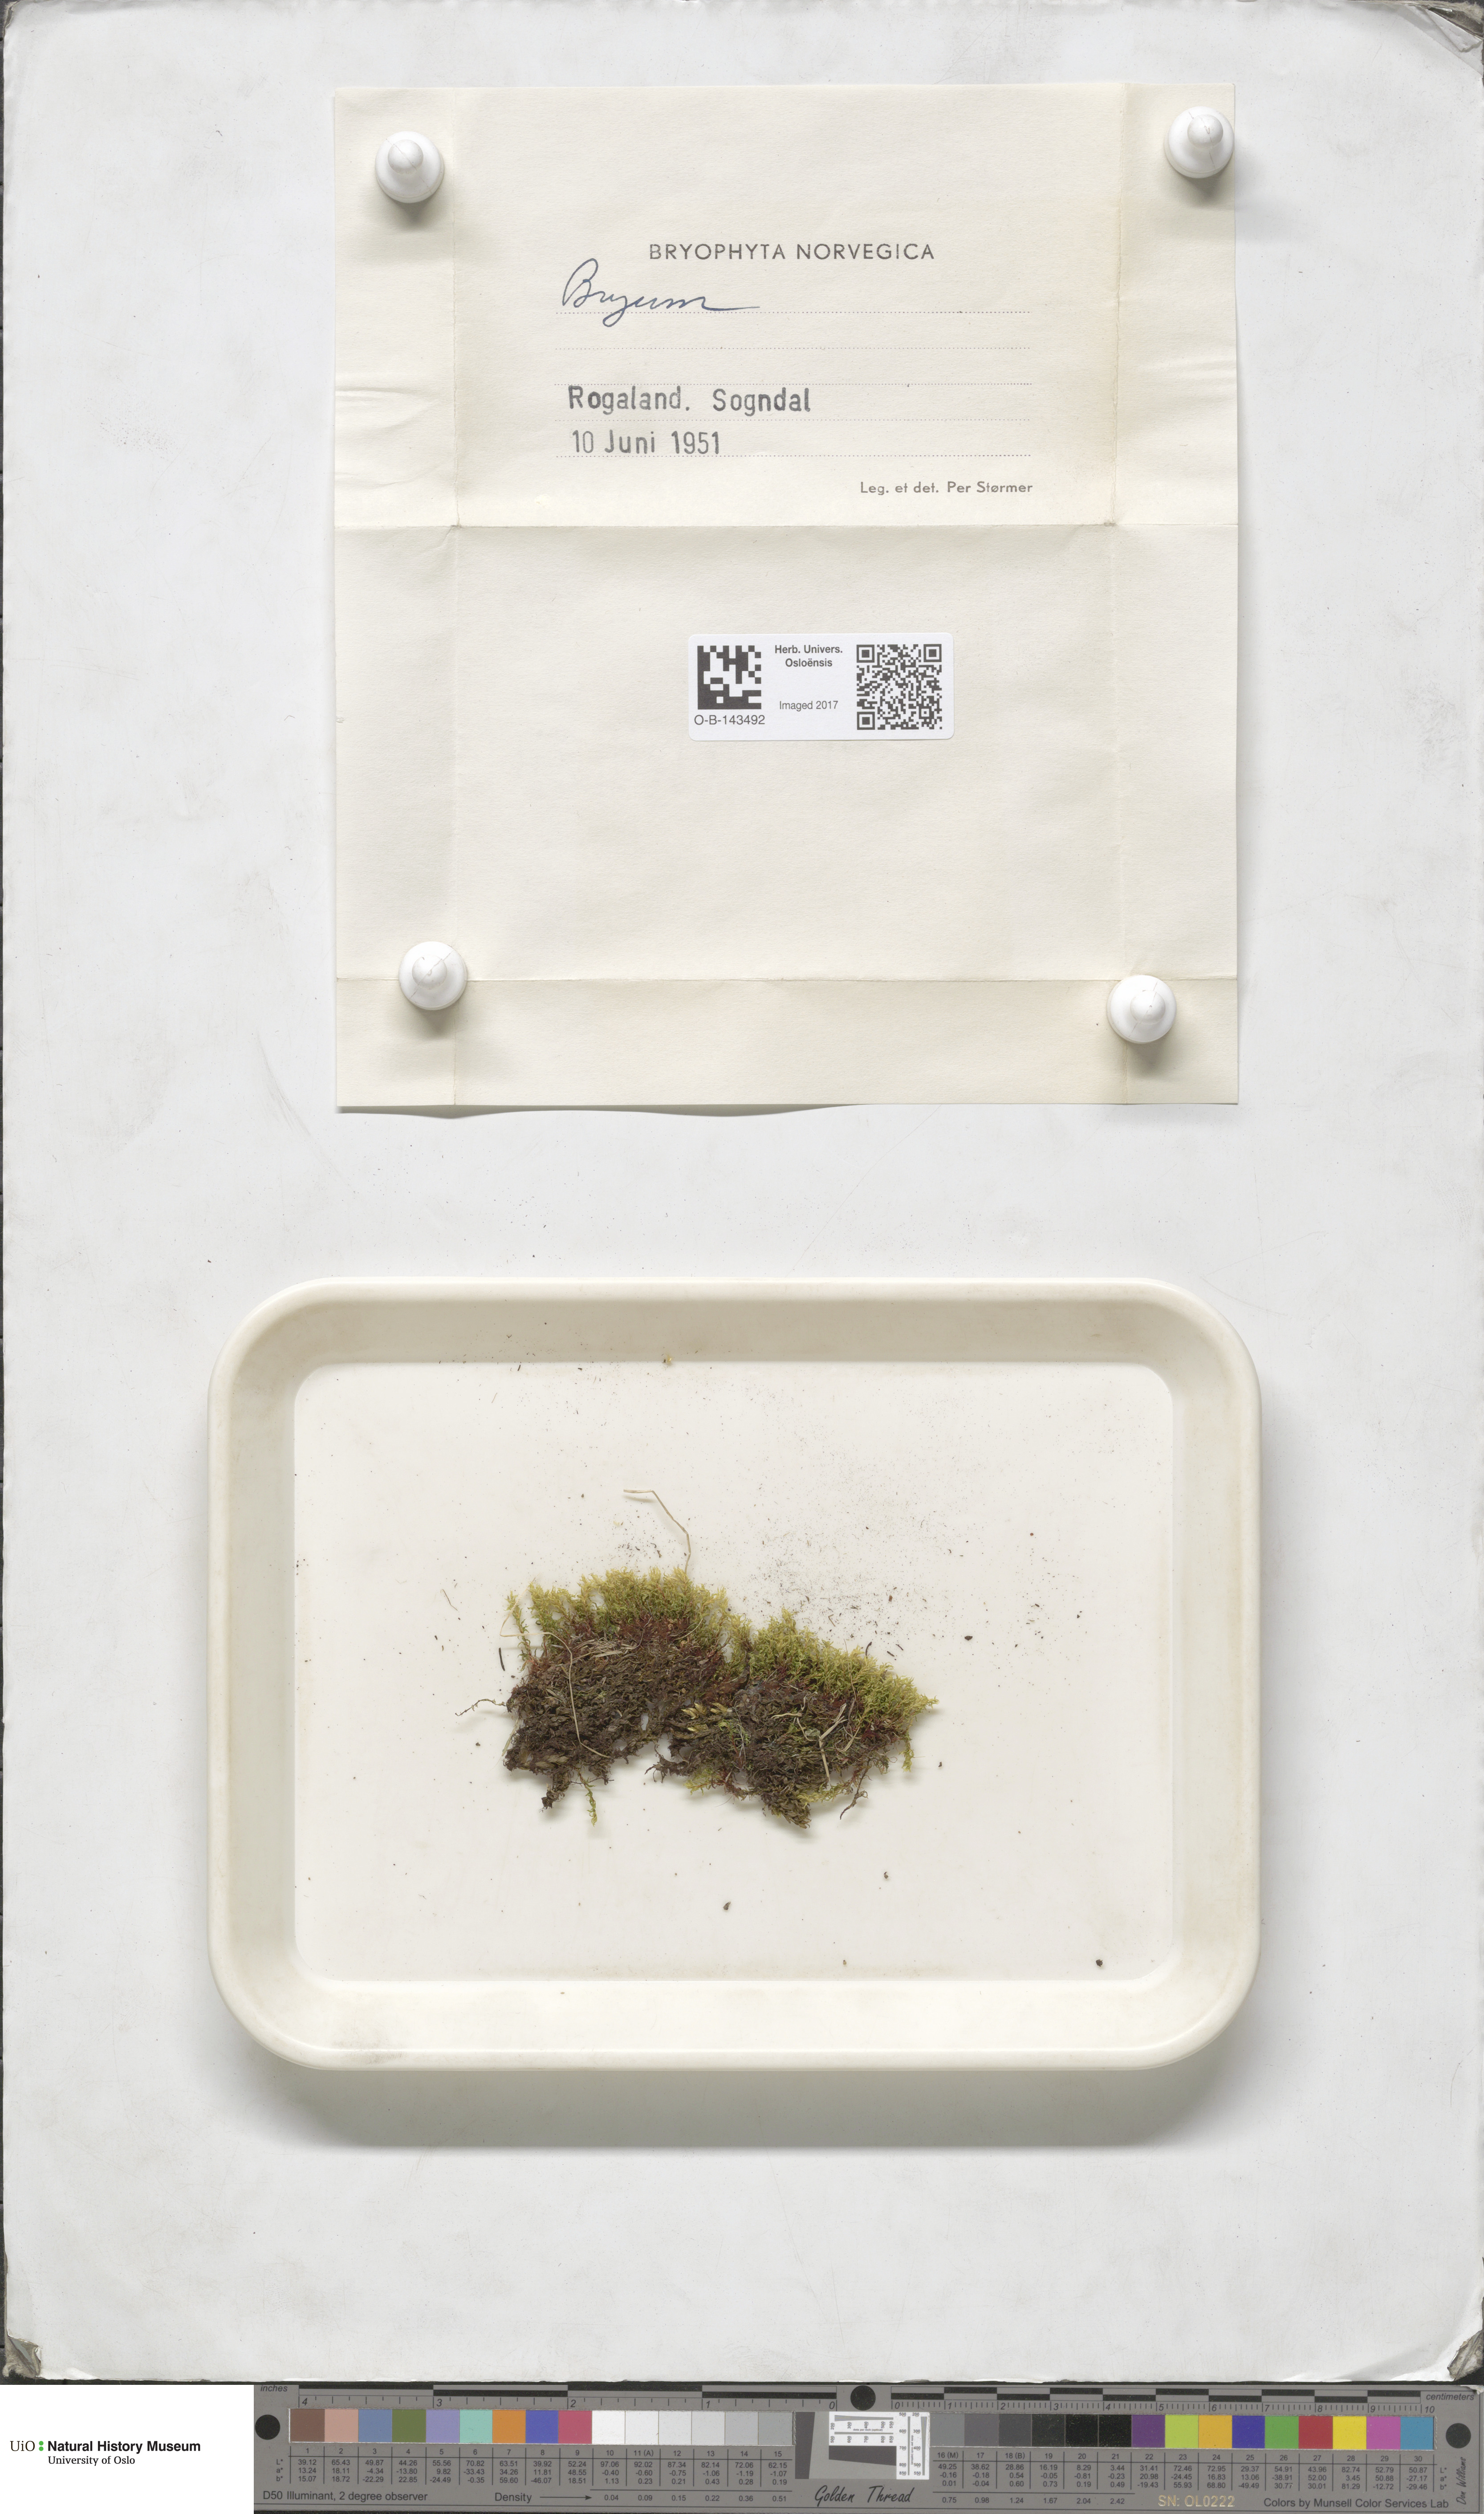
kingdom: Plantae
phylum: Bryophyta
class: Bryopsida
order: Bryales
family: Bryaceae
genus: Bryum
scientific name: Bryum
